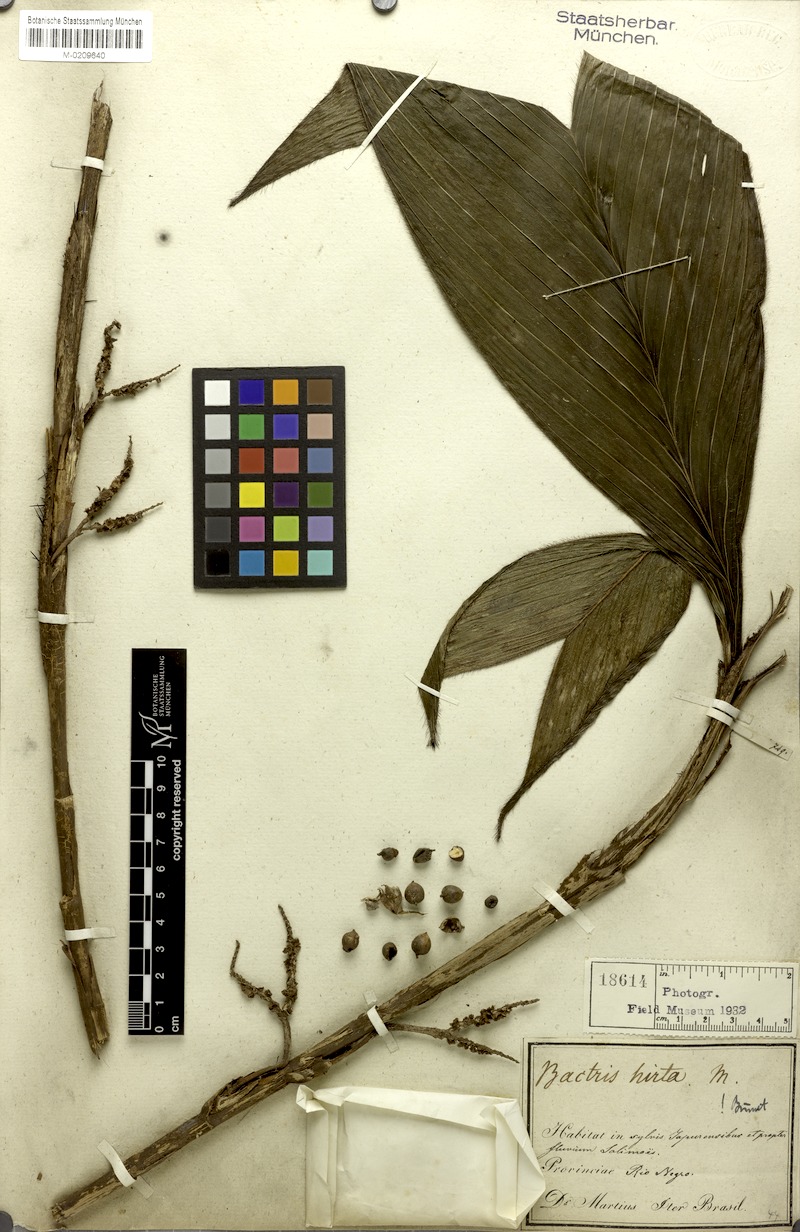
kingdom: Plantae
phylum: Tracheophyta
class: Liliopsida
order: Arecales
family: Arecaceae
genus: Bactris
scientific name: Bactris hirta
